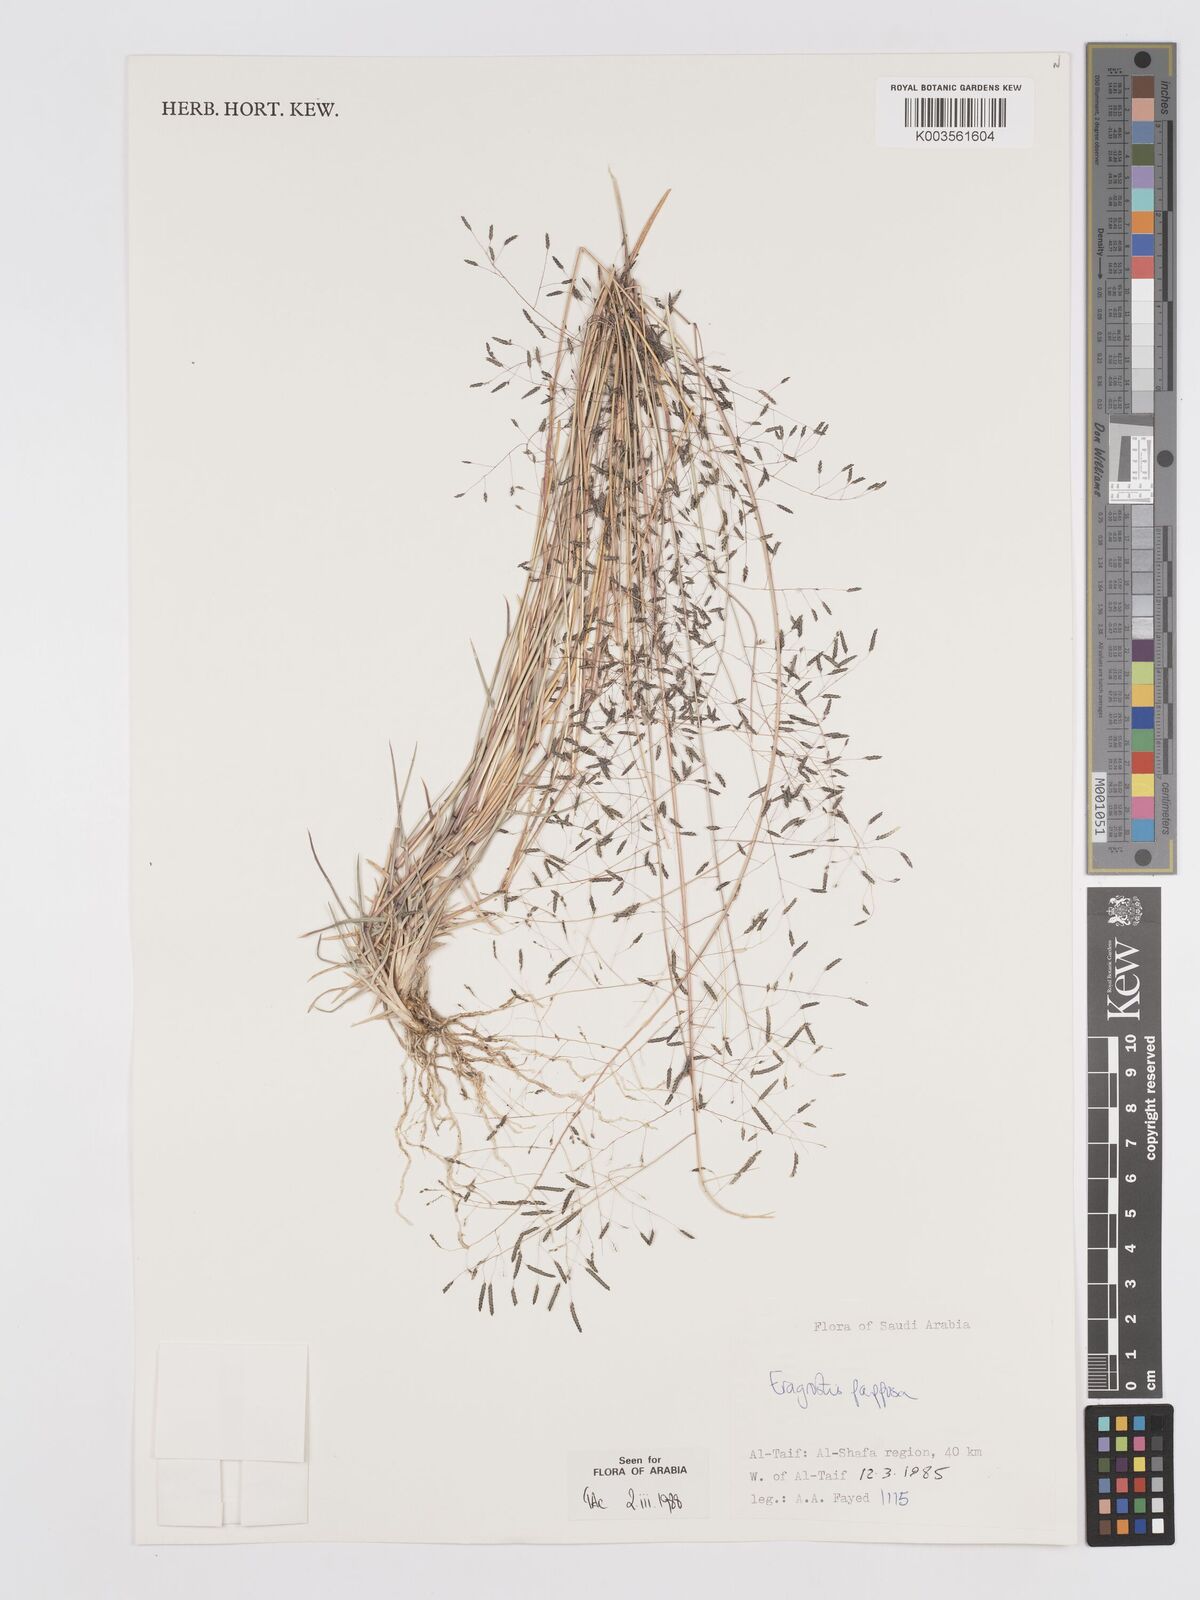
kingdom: Plantae
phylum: Tracheophyta
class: Liliopsida
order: Poales
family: Poaceae
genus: Eragrostis
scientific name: Eragrostis papposa
